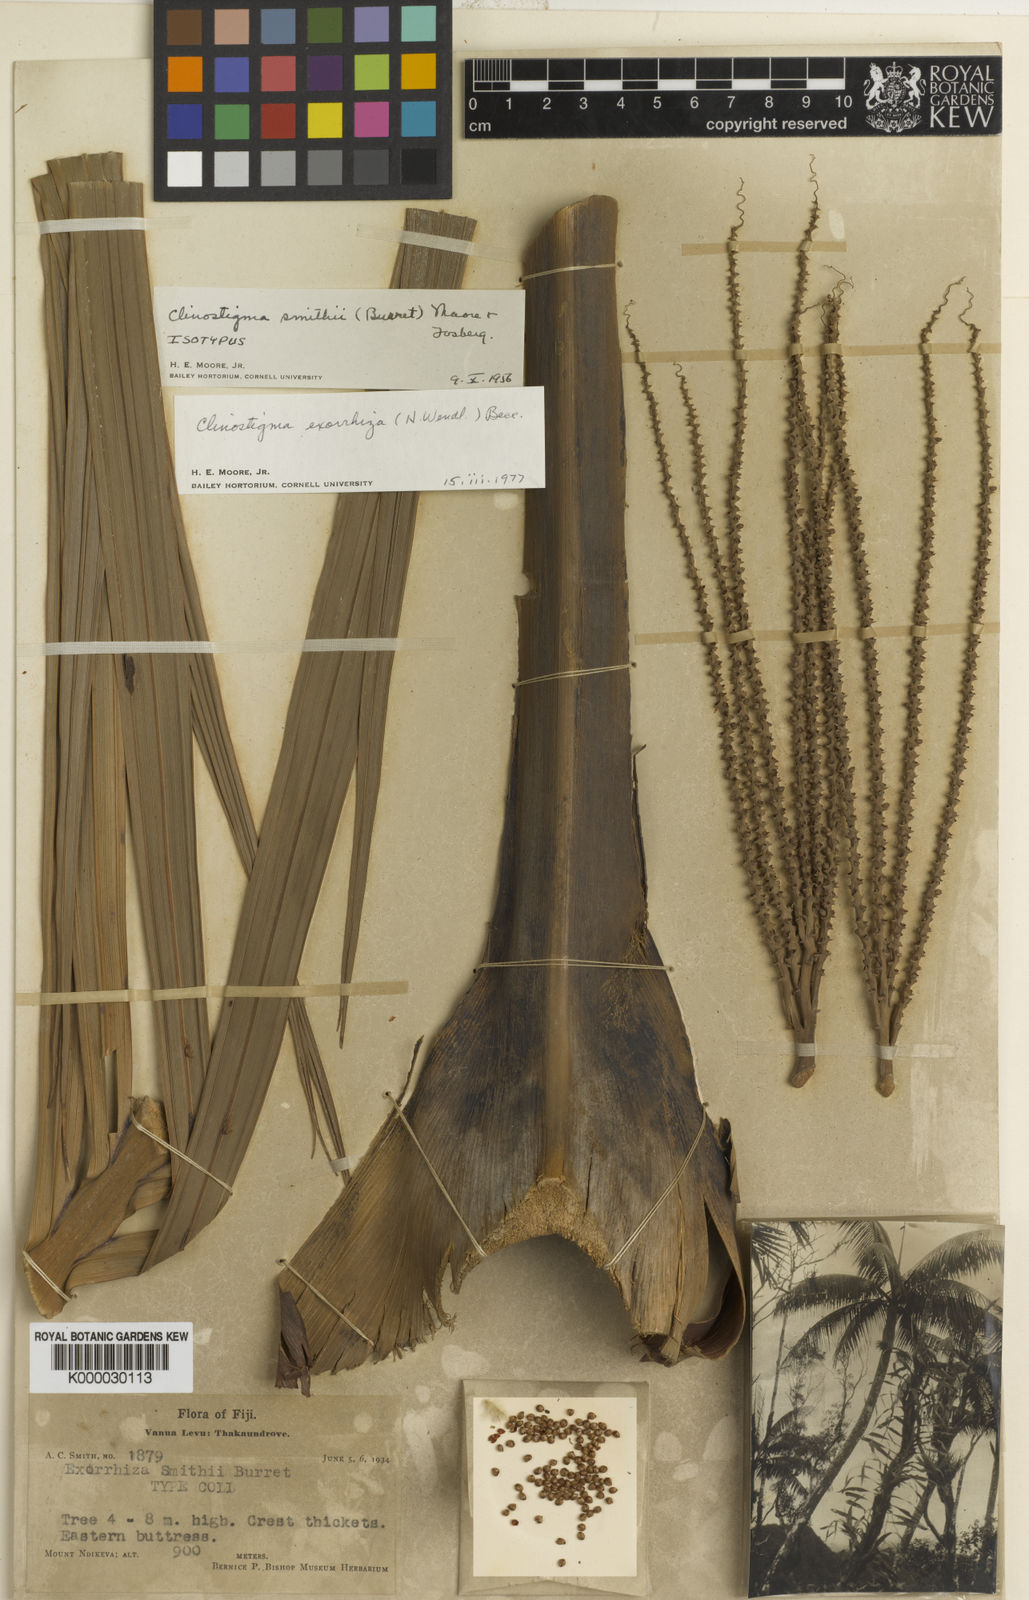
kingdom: Plantae
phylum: Tracheophyta
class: Liliopsida
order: Arecales
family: Arecaceae
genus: Clinostigma
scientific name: Clinostigma exorrhizum
